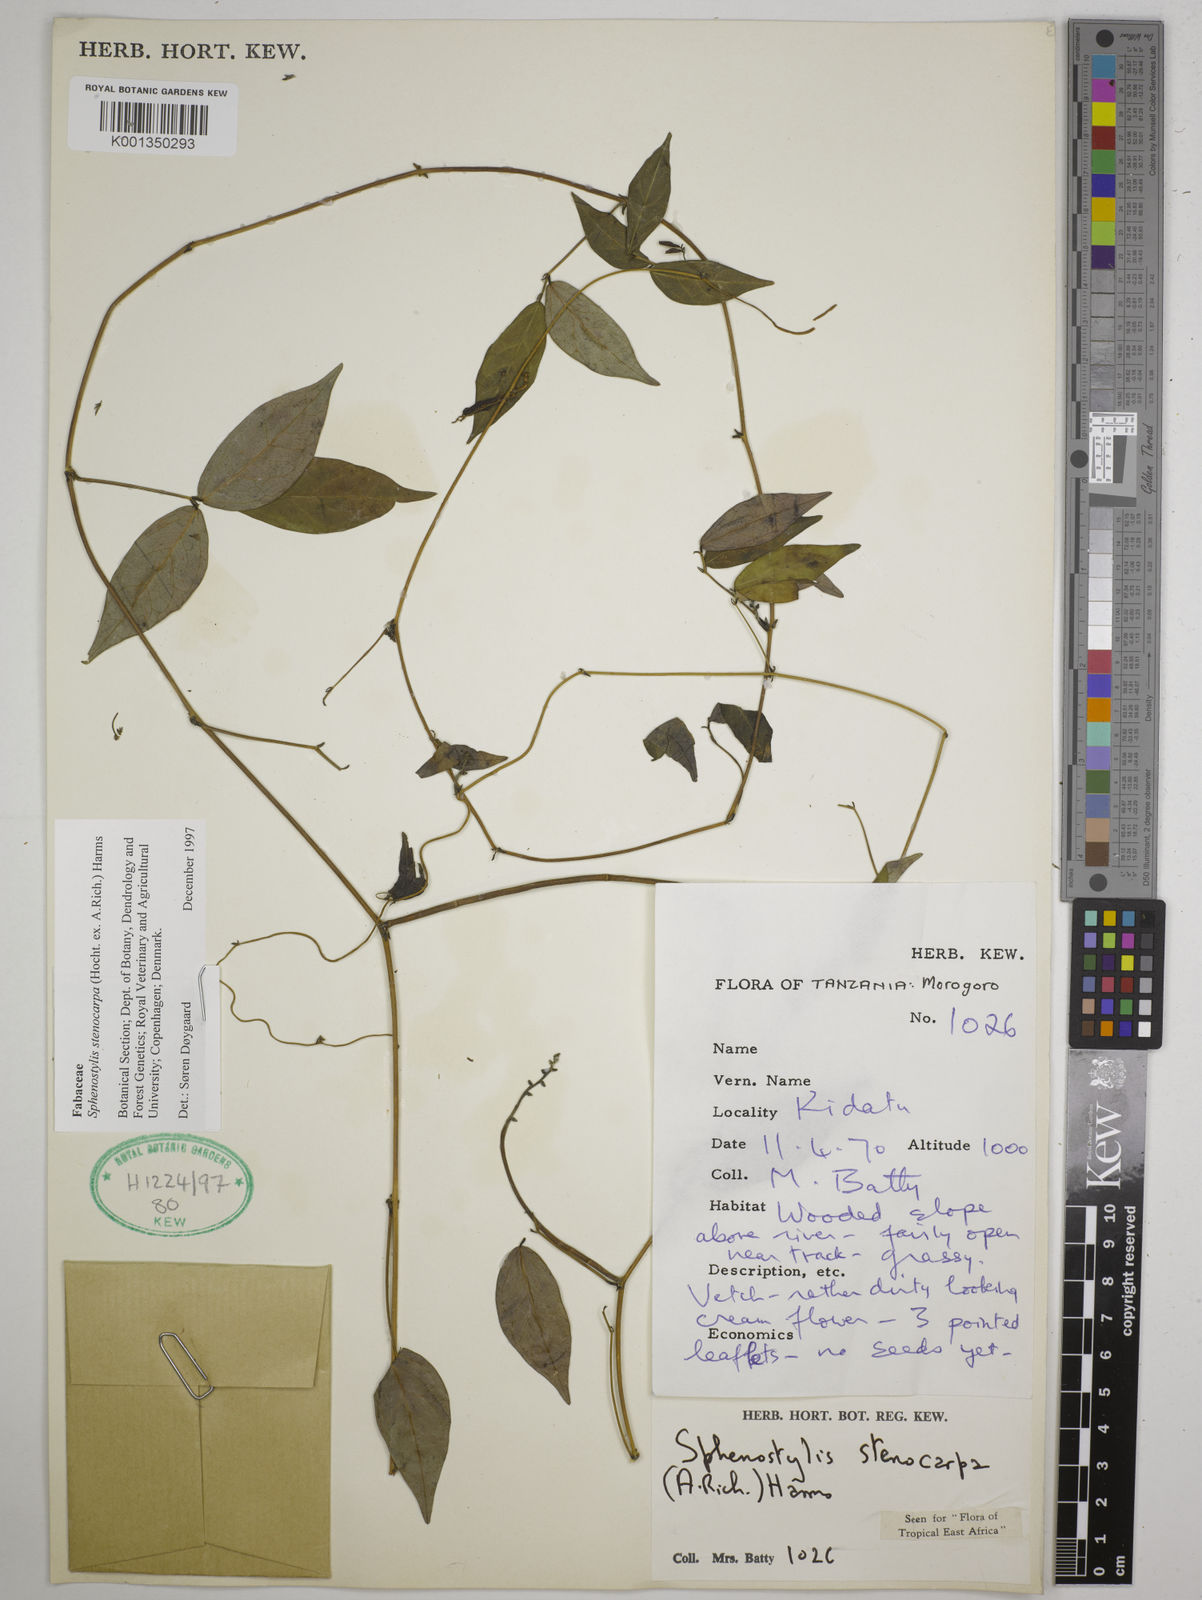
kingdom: Plantae
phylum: Tracheophyta
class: Magnoliopsida
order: Fabales
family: Fabaceae
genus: Sphenostylis
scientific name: Sphenostylis stenocarpa
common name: Yam-pea
